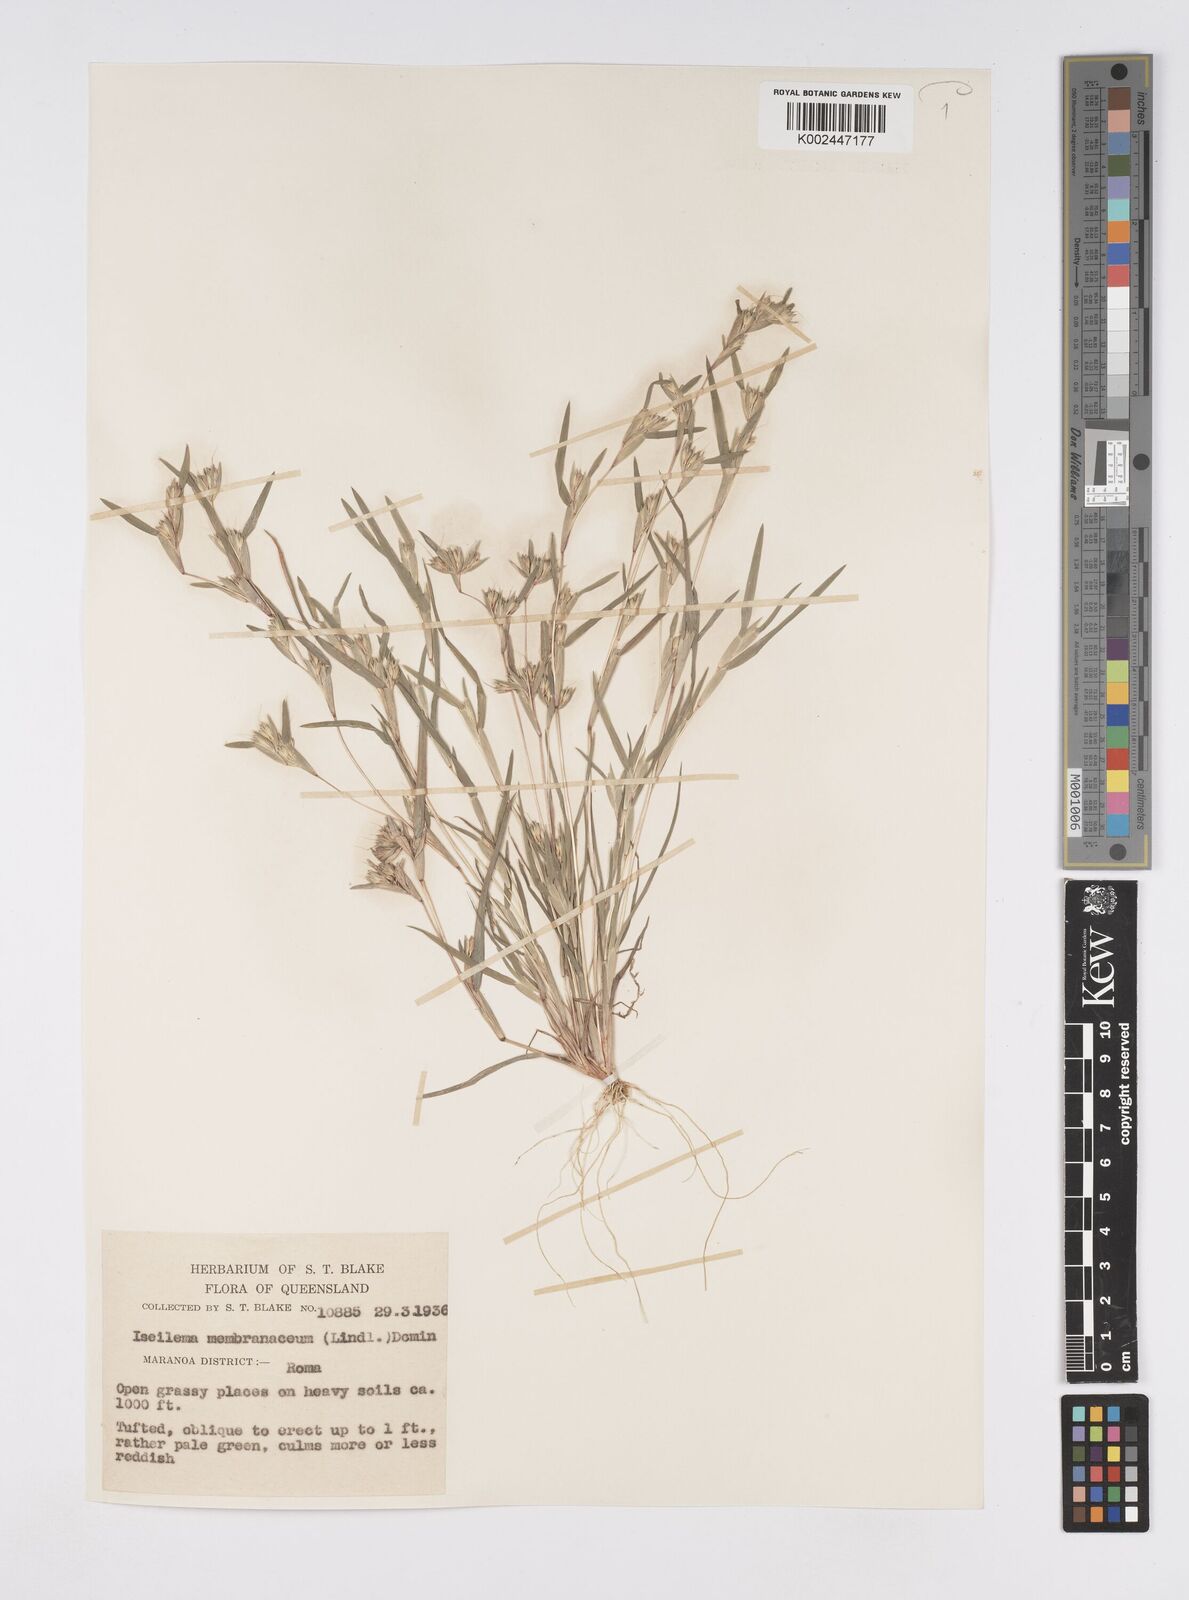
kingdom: Plantae
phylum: Tracheophyta
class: Liliopsida
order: Poales
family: Poaceae
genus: Iseilema
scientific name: Iseilema membranaceum
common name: Small flinders grass
